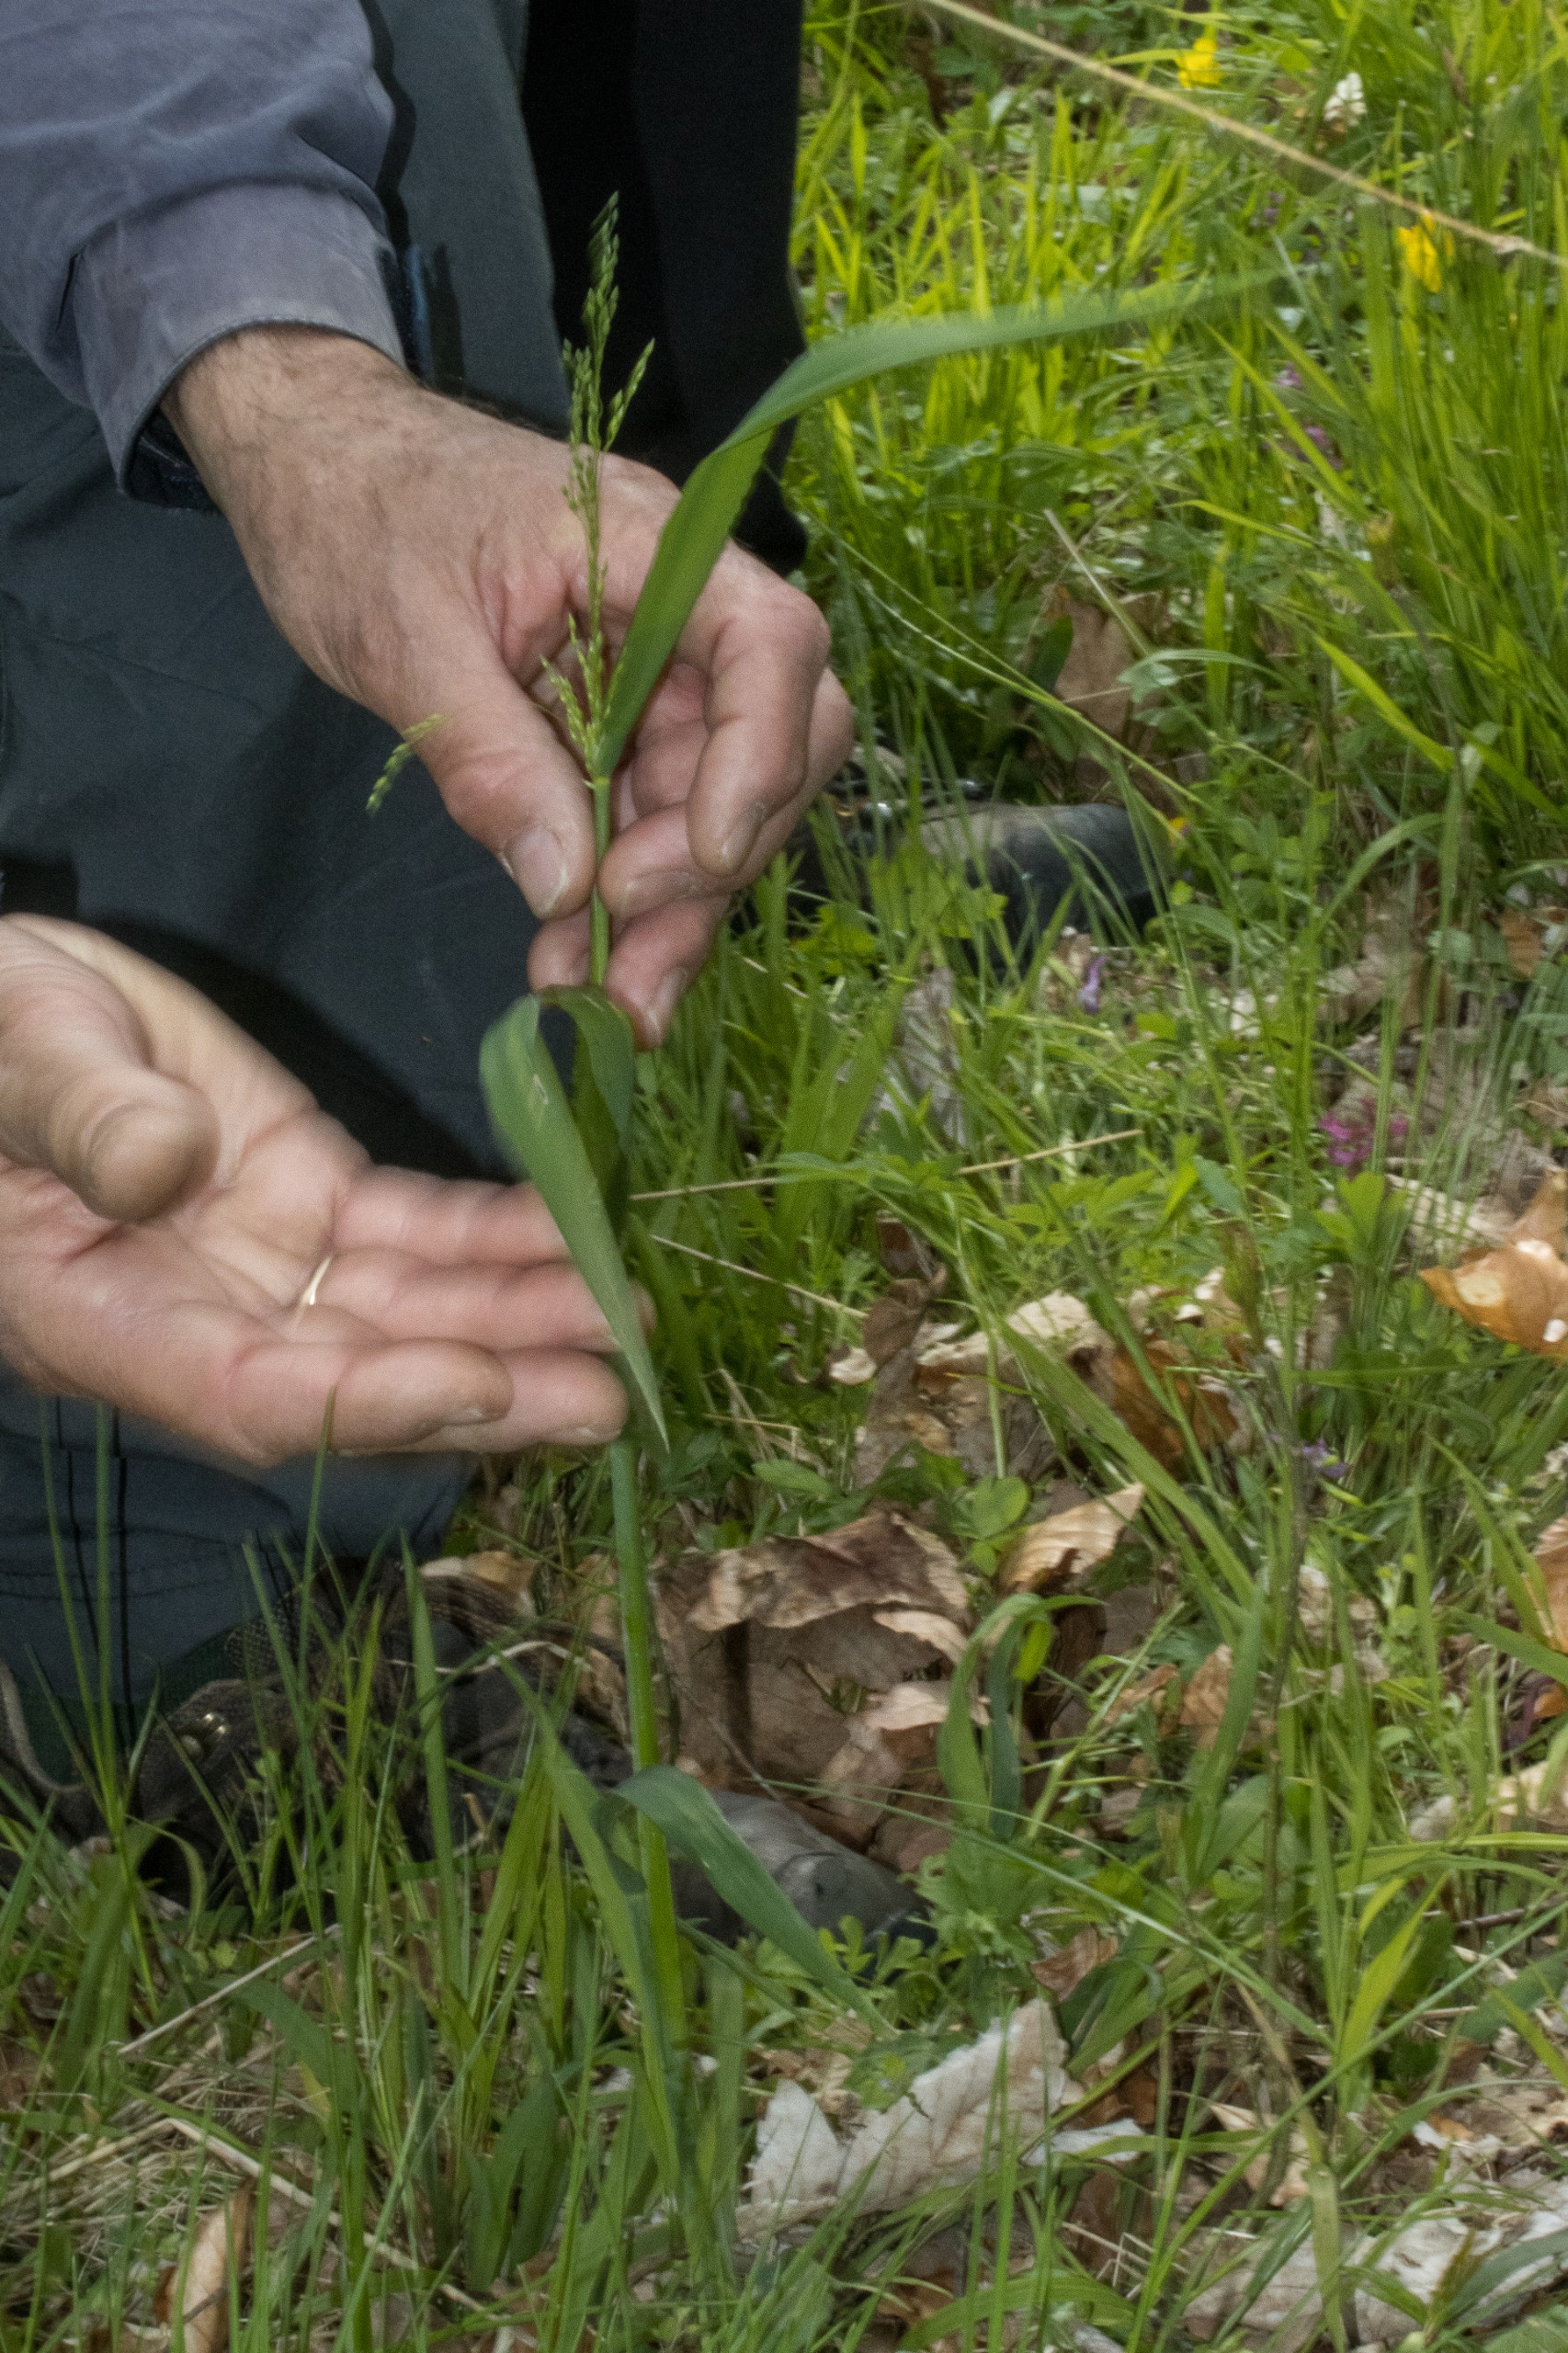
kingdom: Plantae
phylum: Tracheophyta
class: Liliopsida
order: Poales
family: Poaceae
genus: Milium
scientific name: Milium effusum
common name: Miliegræs
